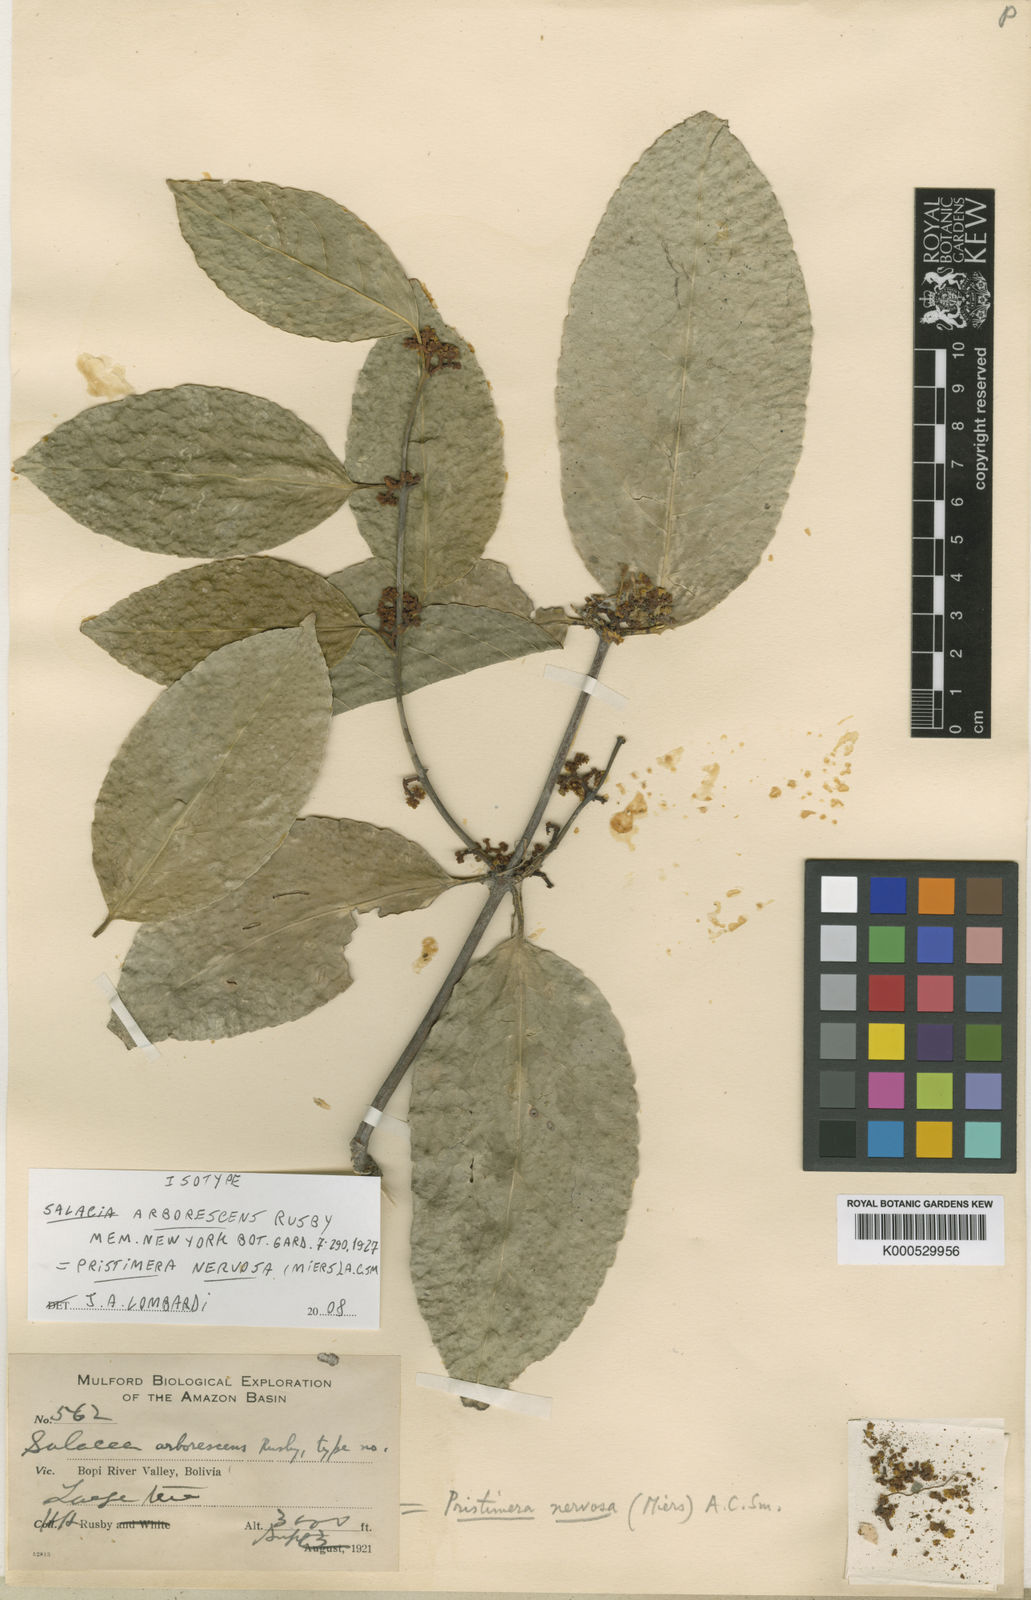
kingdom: Plantae
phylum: Tracheophyta
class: Magnoliopsida
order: Celastrales
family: Celastraceae
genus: Pristimera
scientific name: Pristimera nervosa
